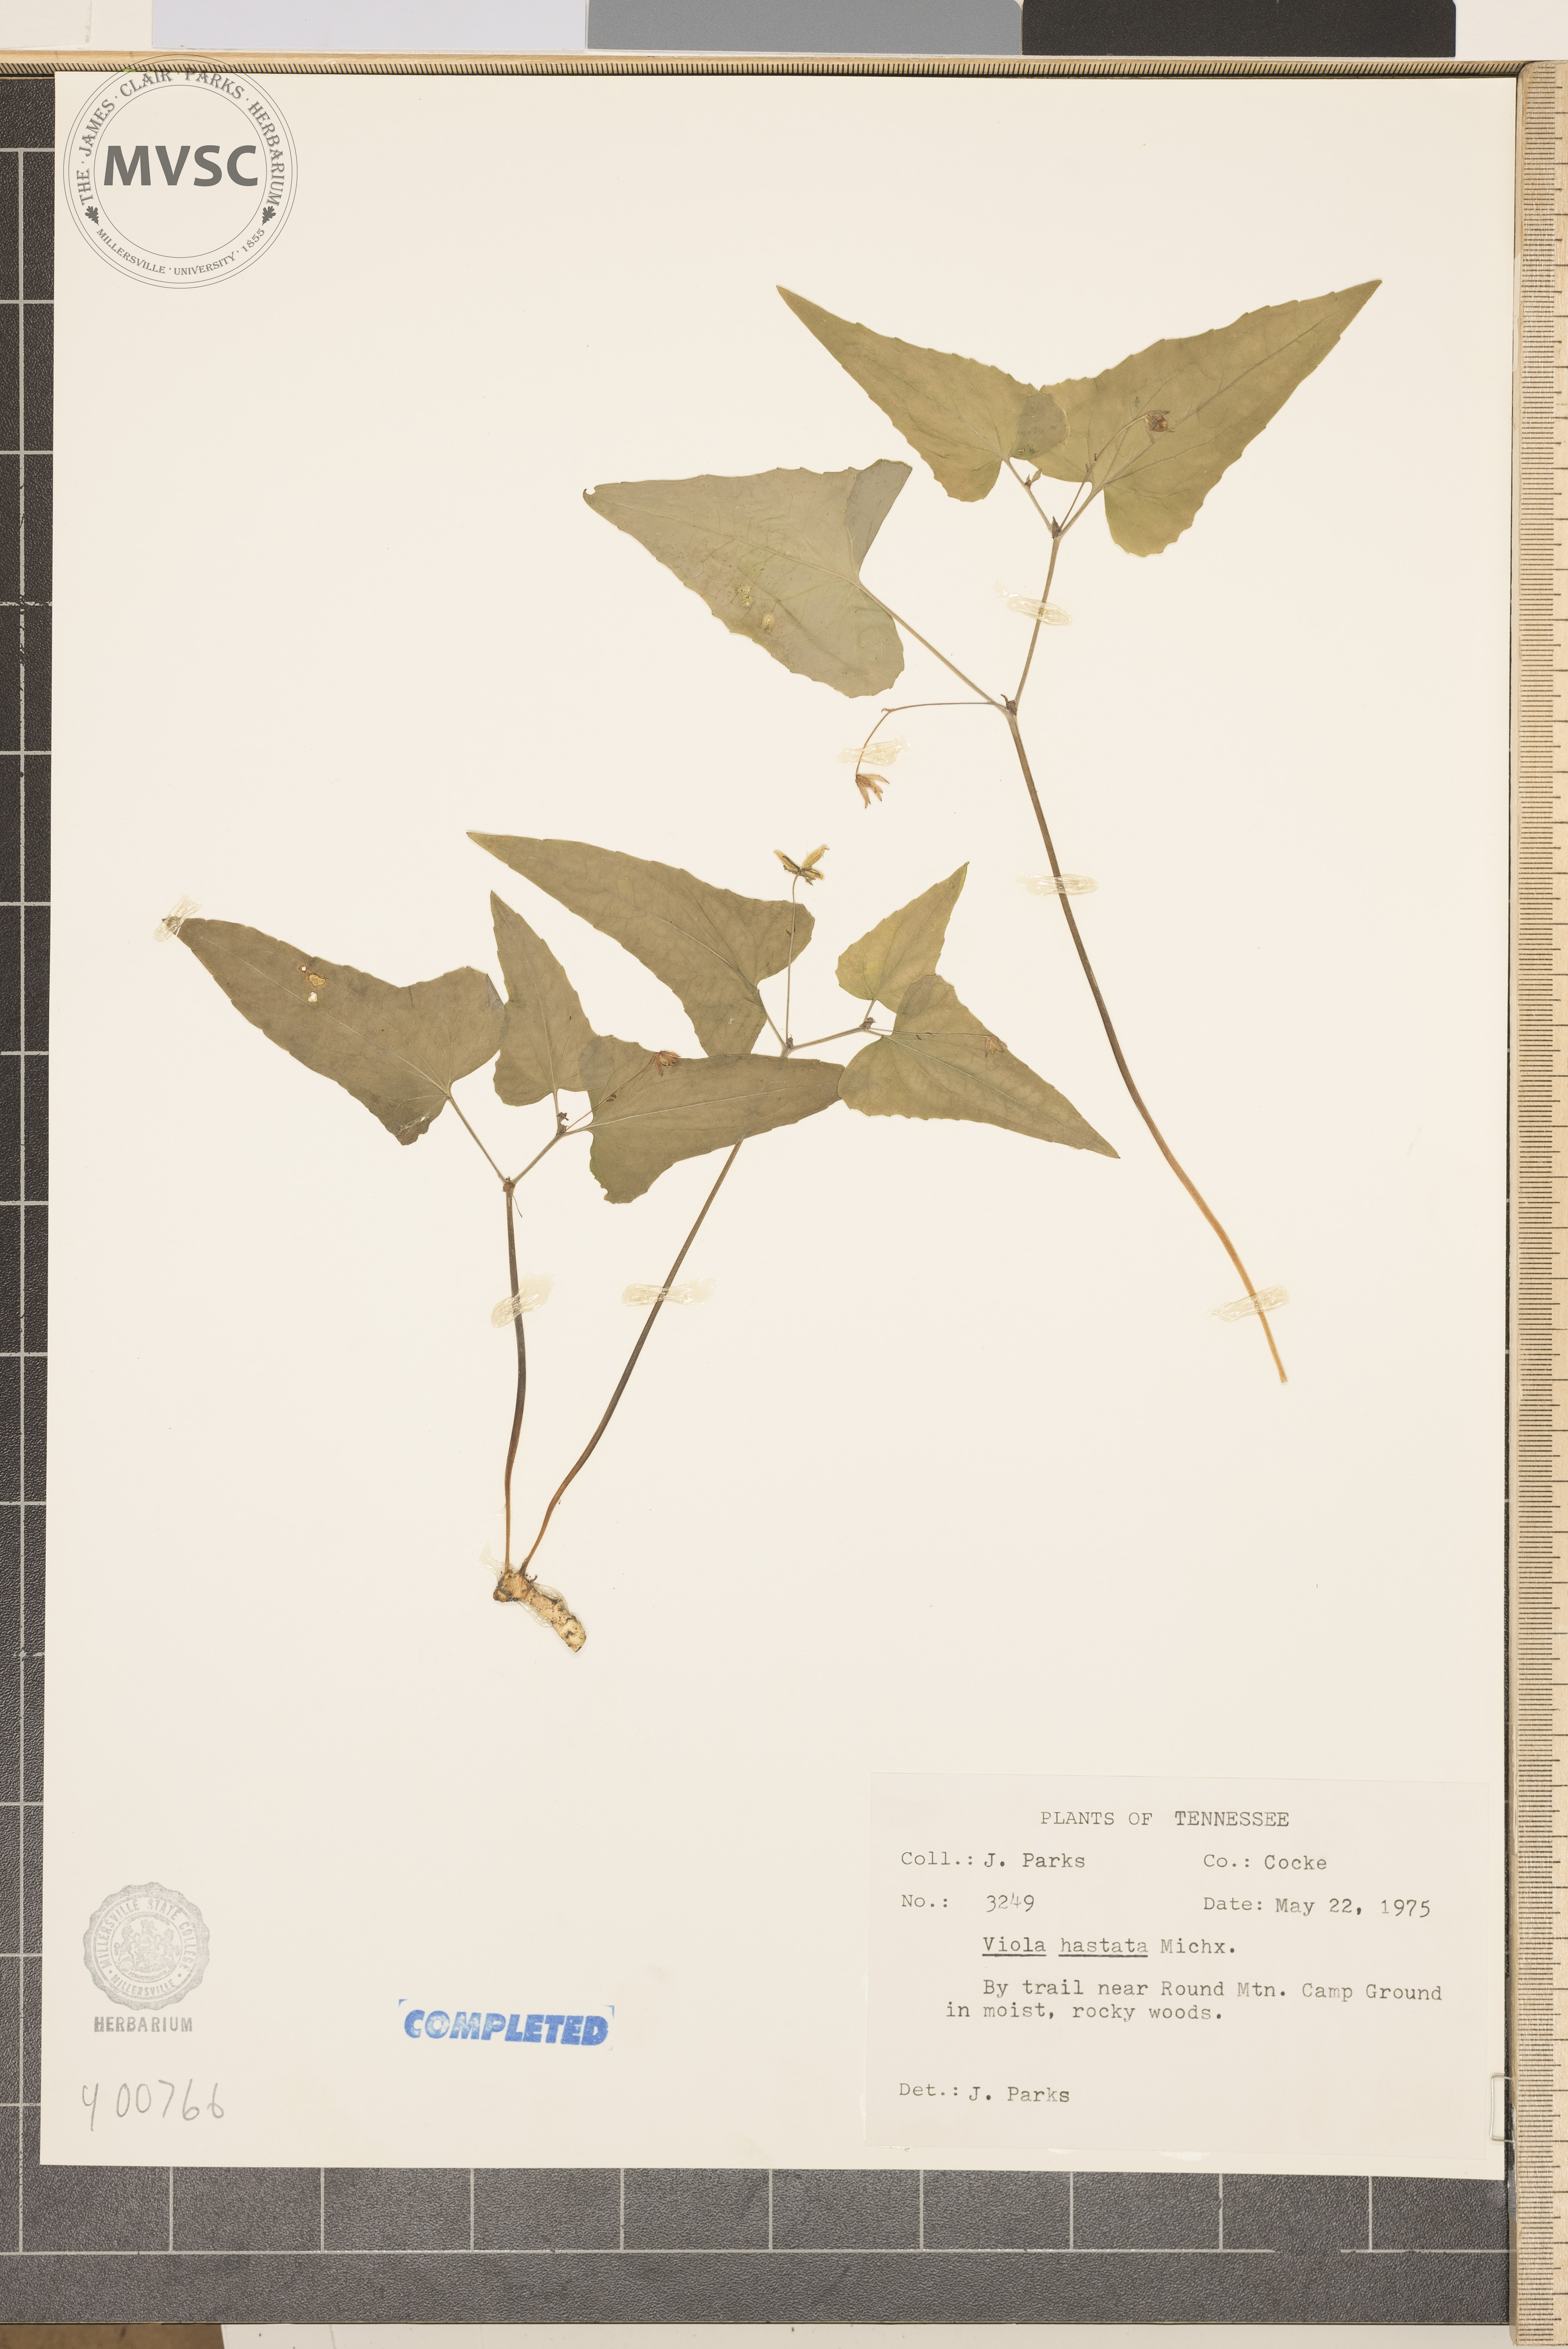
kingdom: Plantae
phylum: Tracheophyta
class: Magnoliopsida
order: Malpighiales
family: Violaceae
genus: Viola
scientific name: Viola hastata
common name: violet
